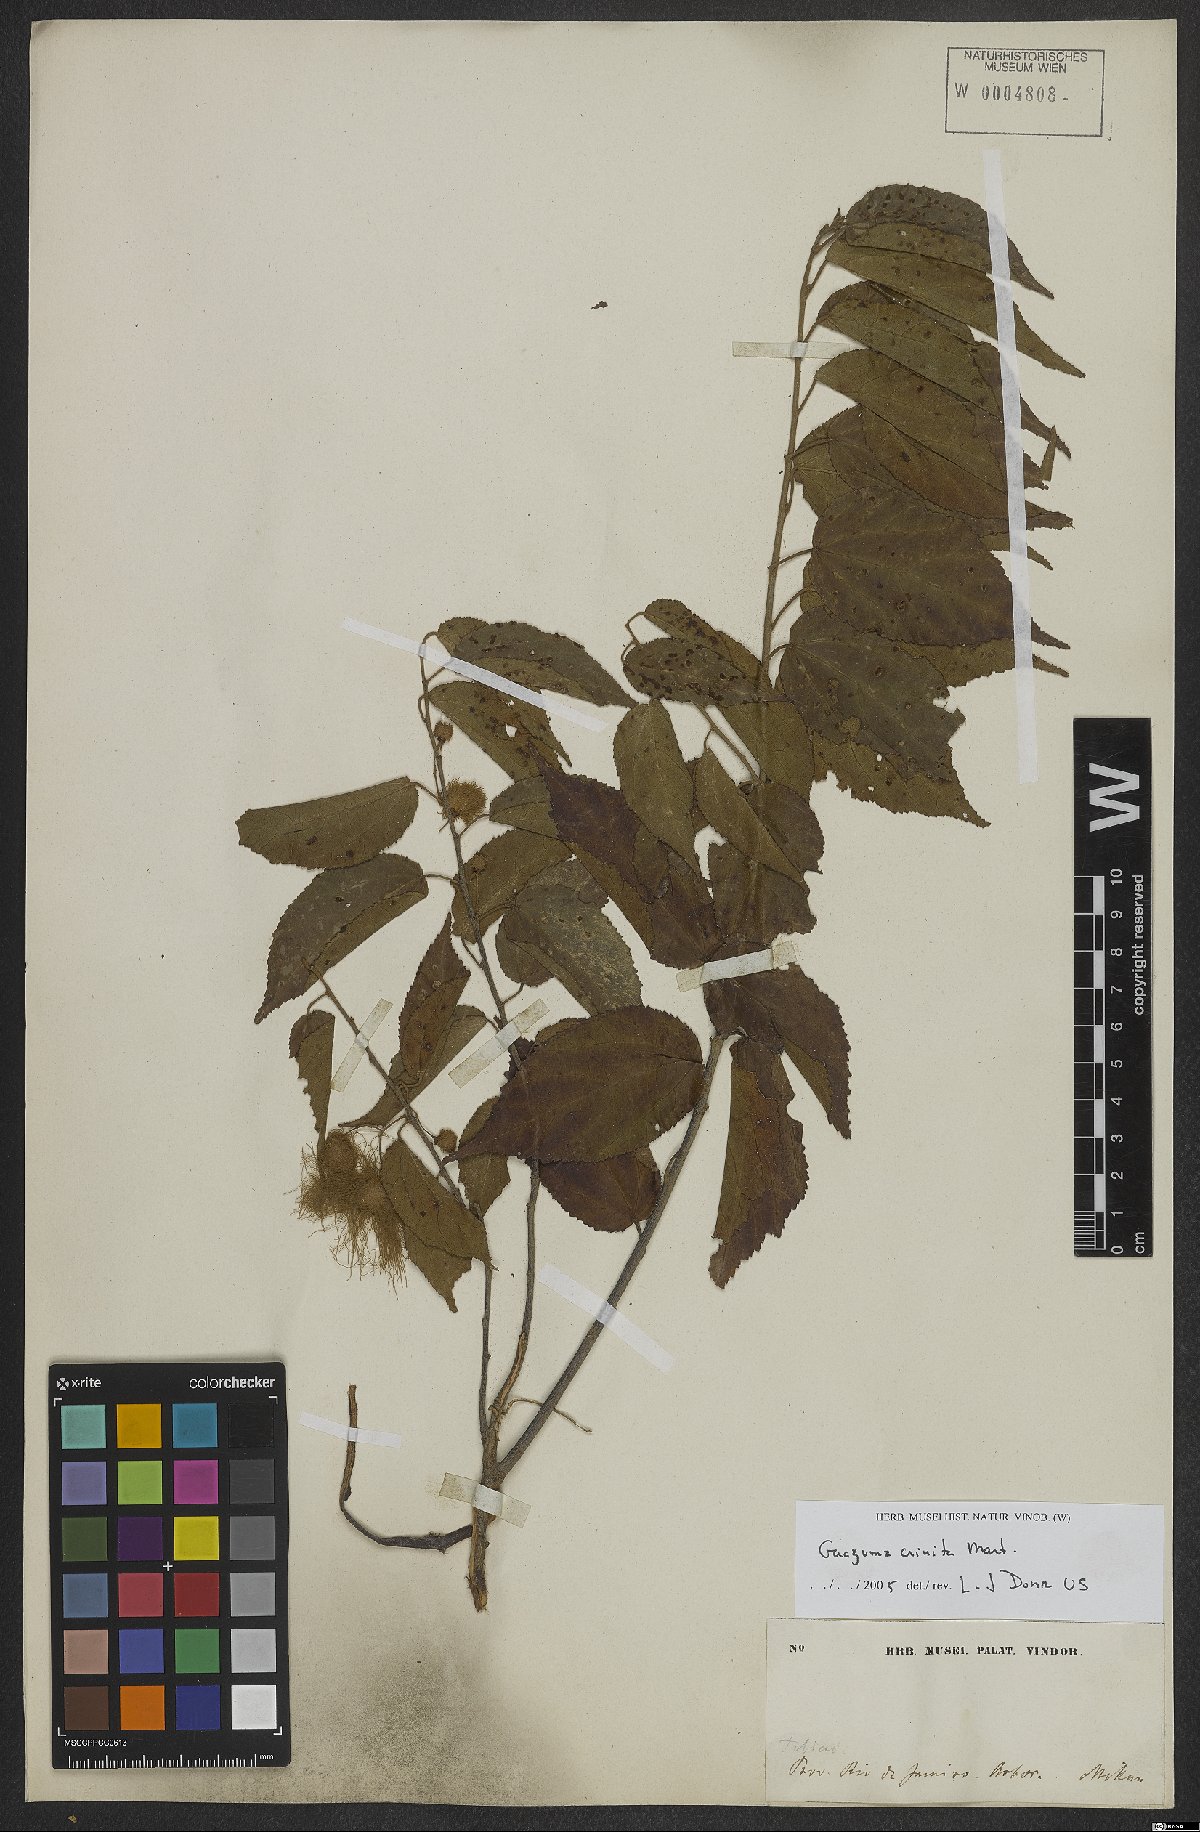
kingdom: Plantae
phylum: Tracheophyta
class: Magnoliopsida
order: Malvales
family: Malvaceae
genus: Guazuma
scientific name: Guazuma crinita
